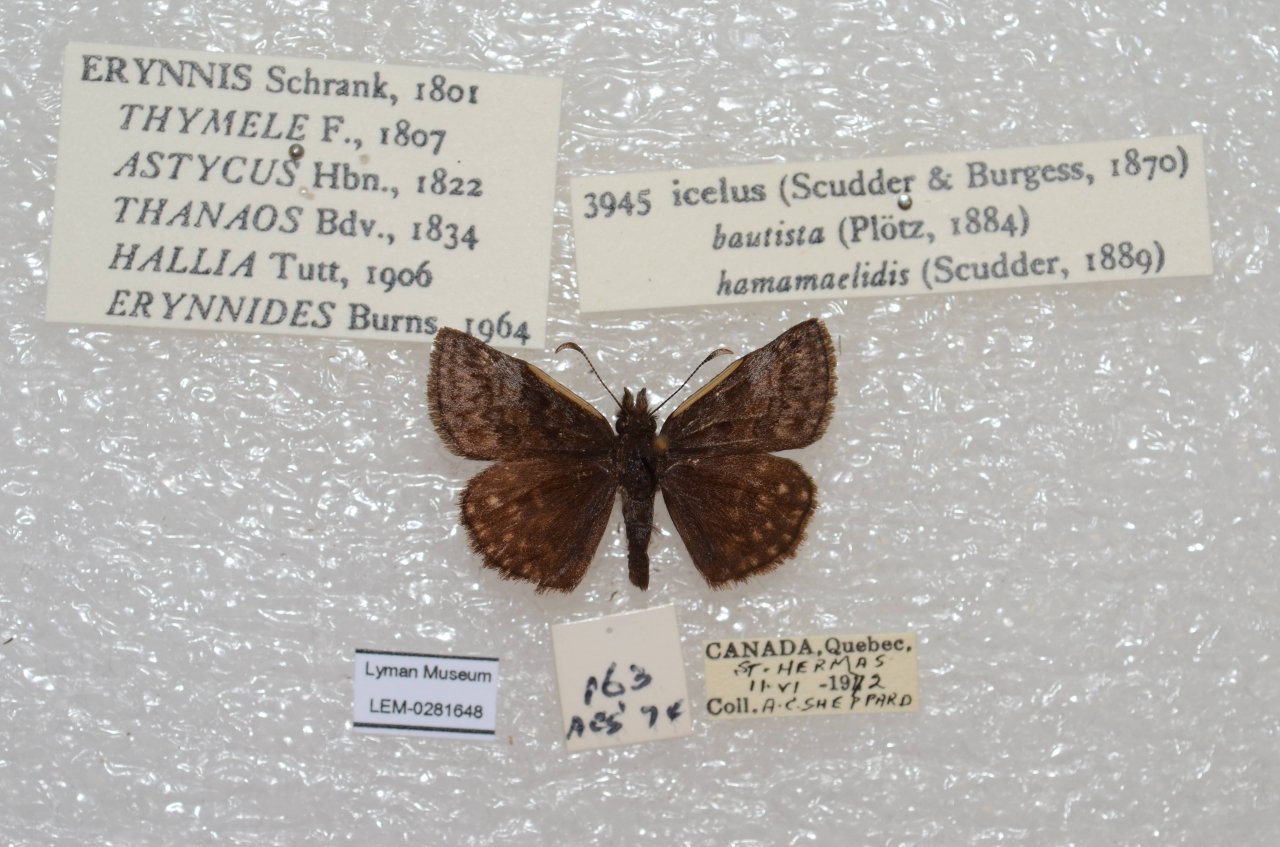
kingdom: Animalia
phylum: Arthropoda
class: Insecta
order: Lepidoptera
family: Hesperiidae
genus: Erynnis
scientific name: Erynnis icelus
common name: Dreamy Duskywing
